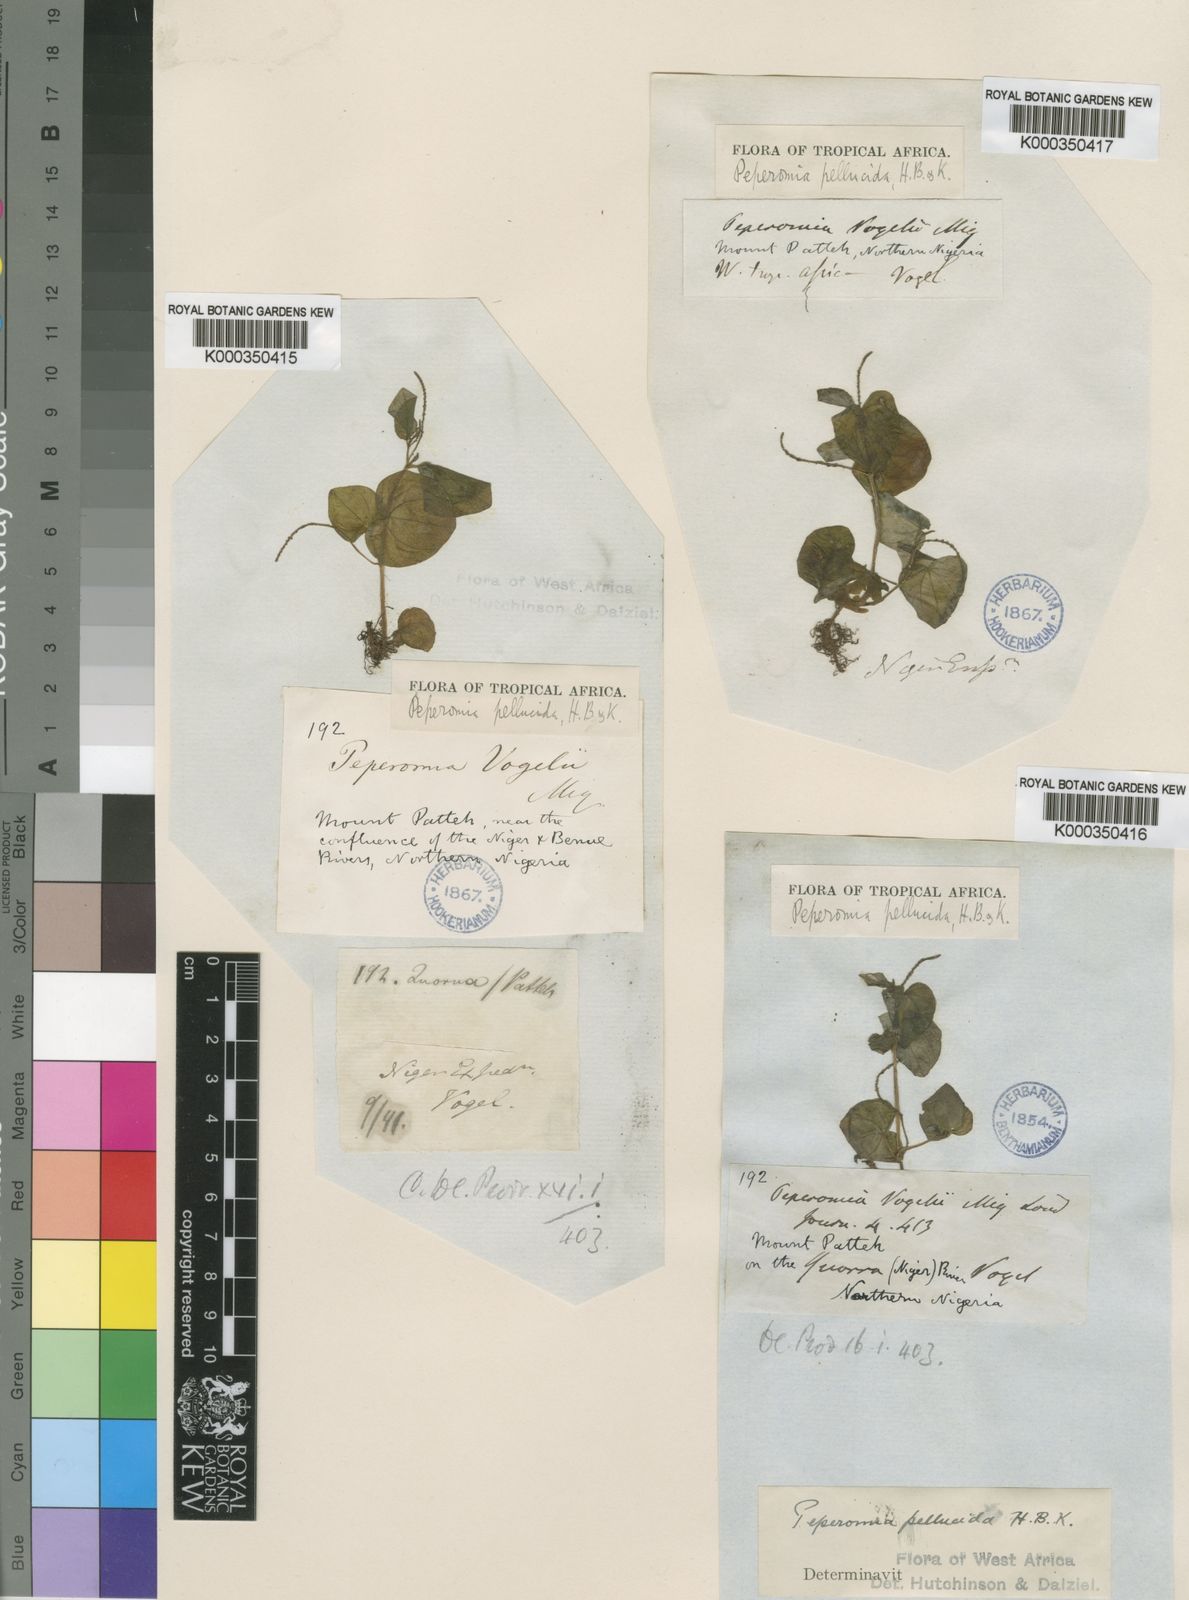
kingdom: Plantae
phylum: Tracheophyta
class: Magnoliopsida
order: Piperales
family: Piperaceae
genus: Peperomia
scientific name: Peperomia
